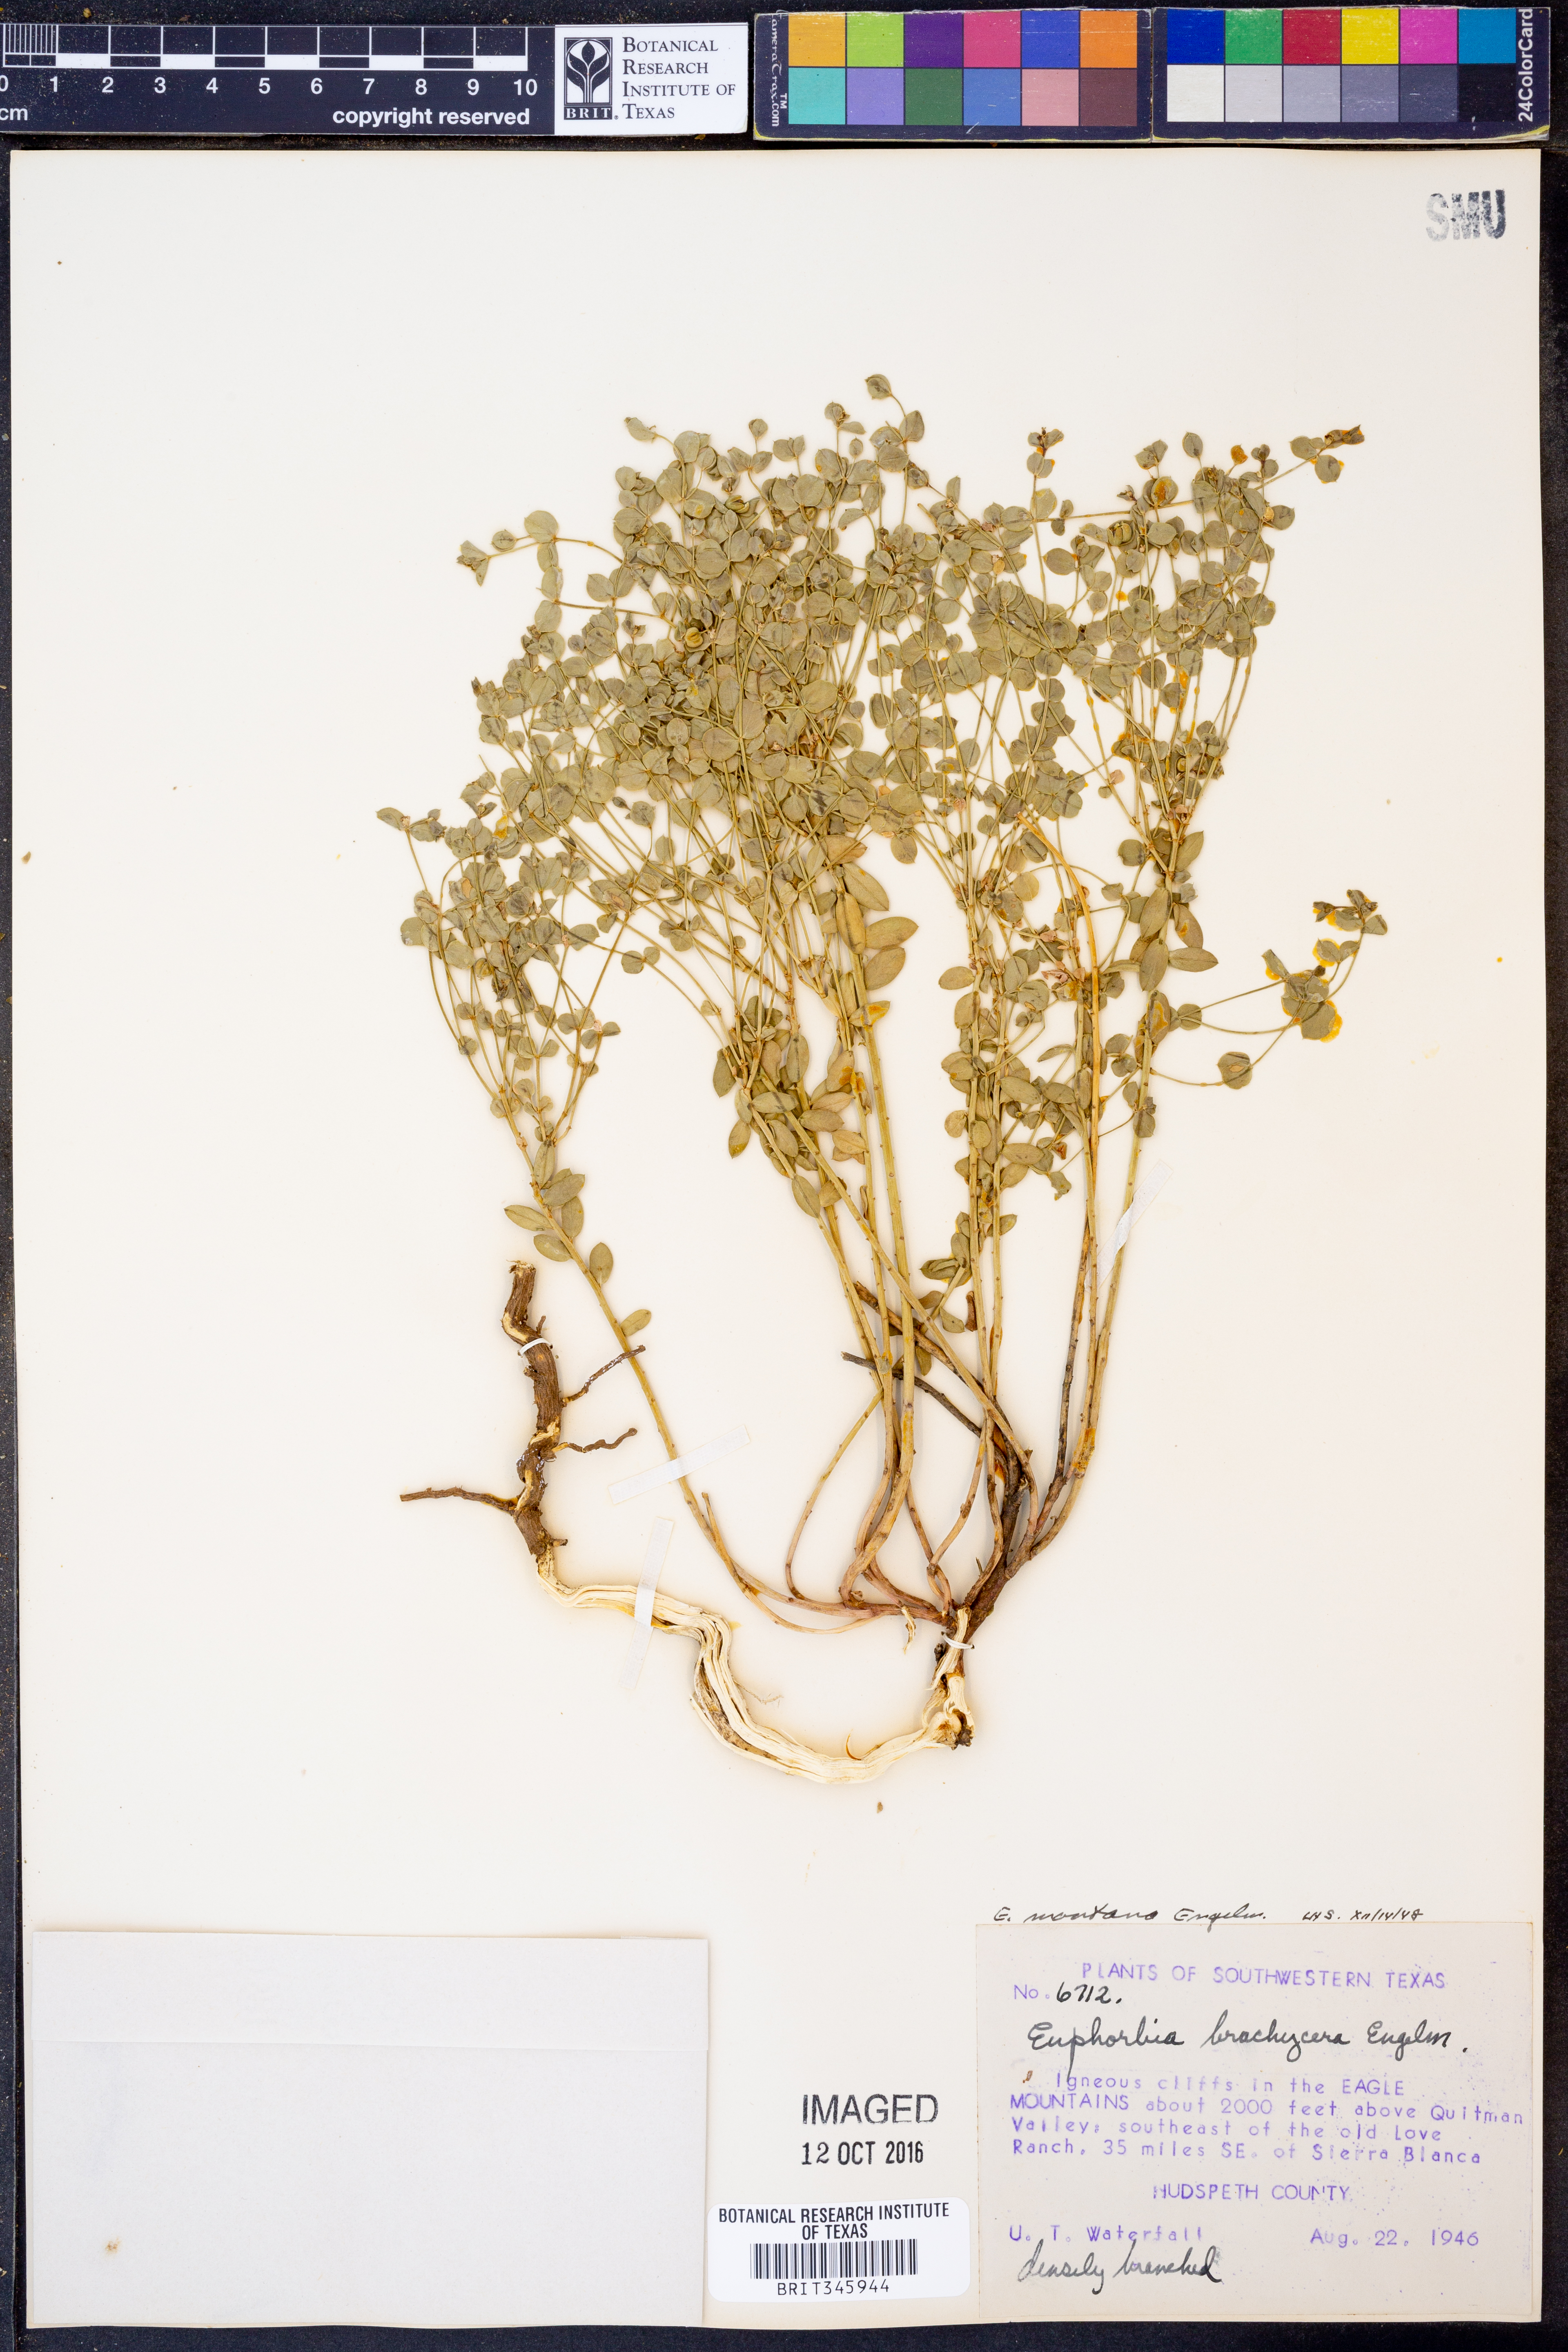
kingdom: Plantae
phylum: Tracheophyta
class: Magnoliopsida
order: Malpighiales
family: Euphorbiaceae
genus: Euphorbia
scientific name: Euphorbia brachycera
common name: Shorthorn spurge
